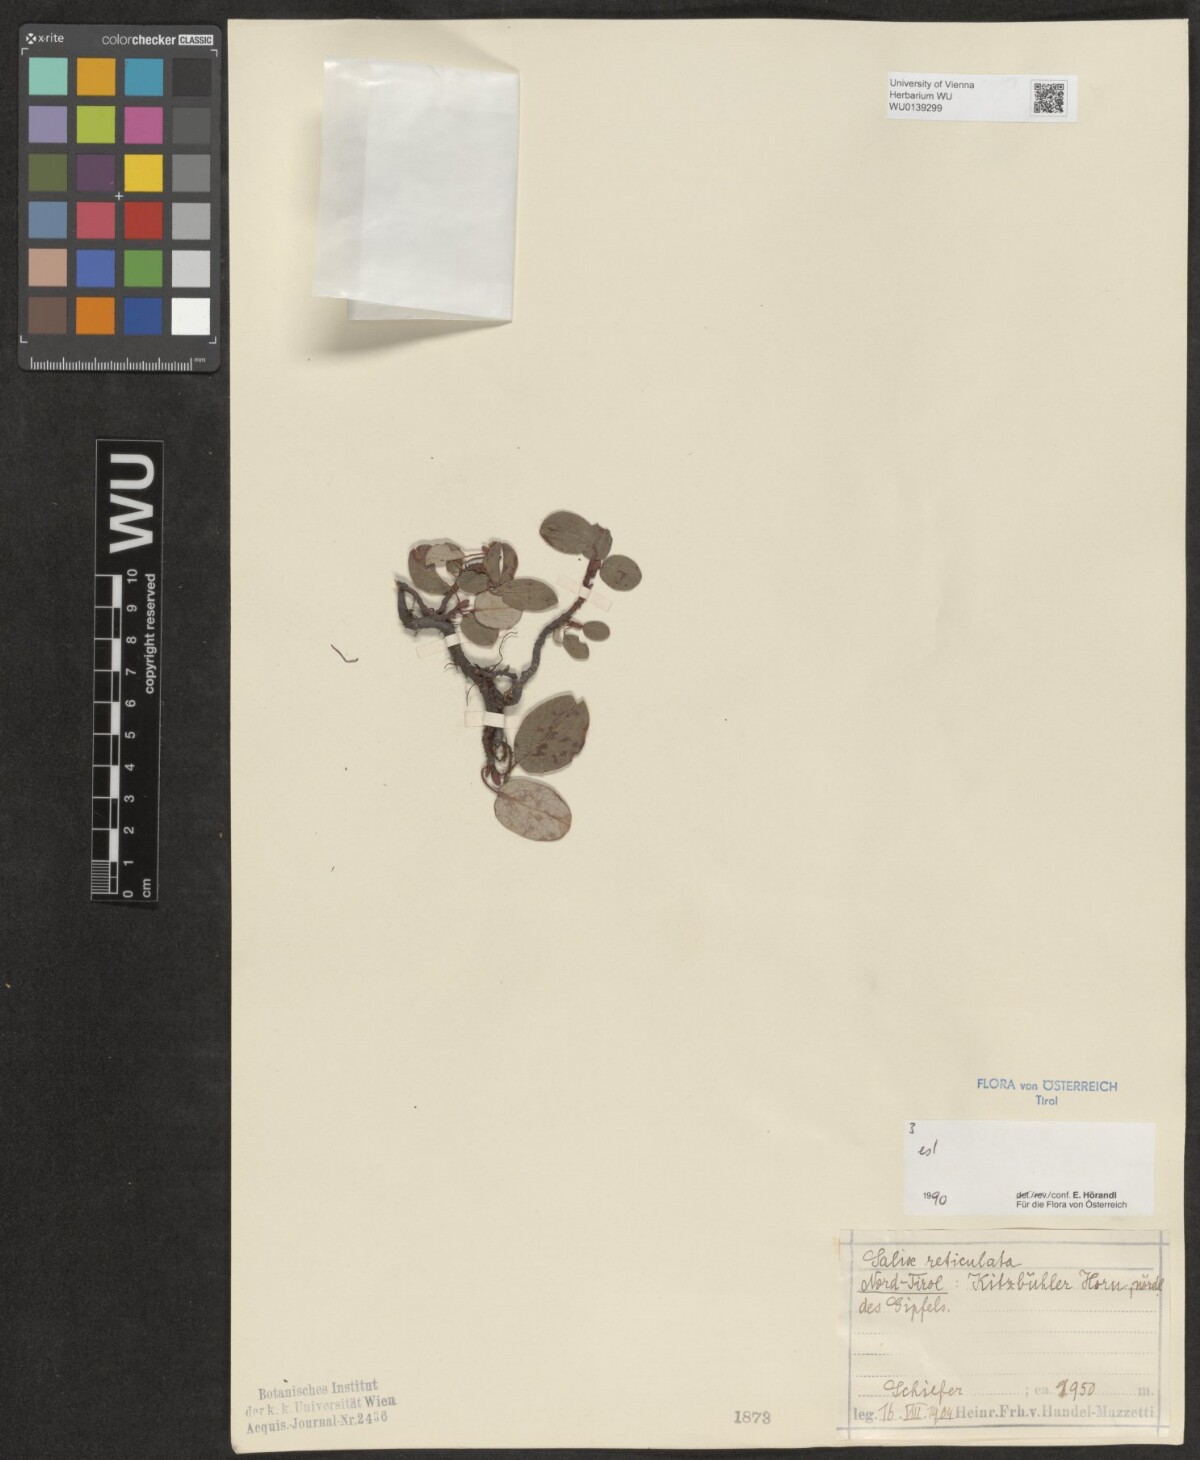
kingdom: Plantae
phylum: Tracheophyta
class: Magnoliopsida
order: Malpighiales
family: Salicaceae
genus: Salix
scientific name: Salix reticulata
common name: Net-leaved willow
